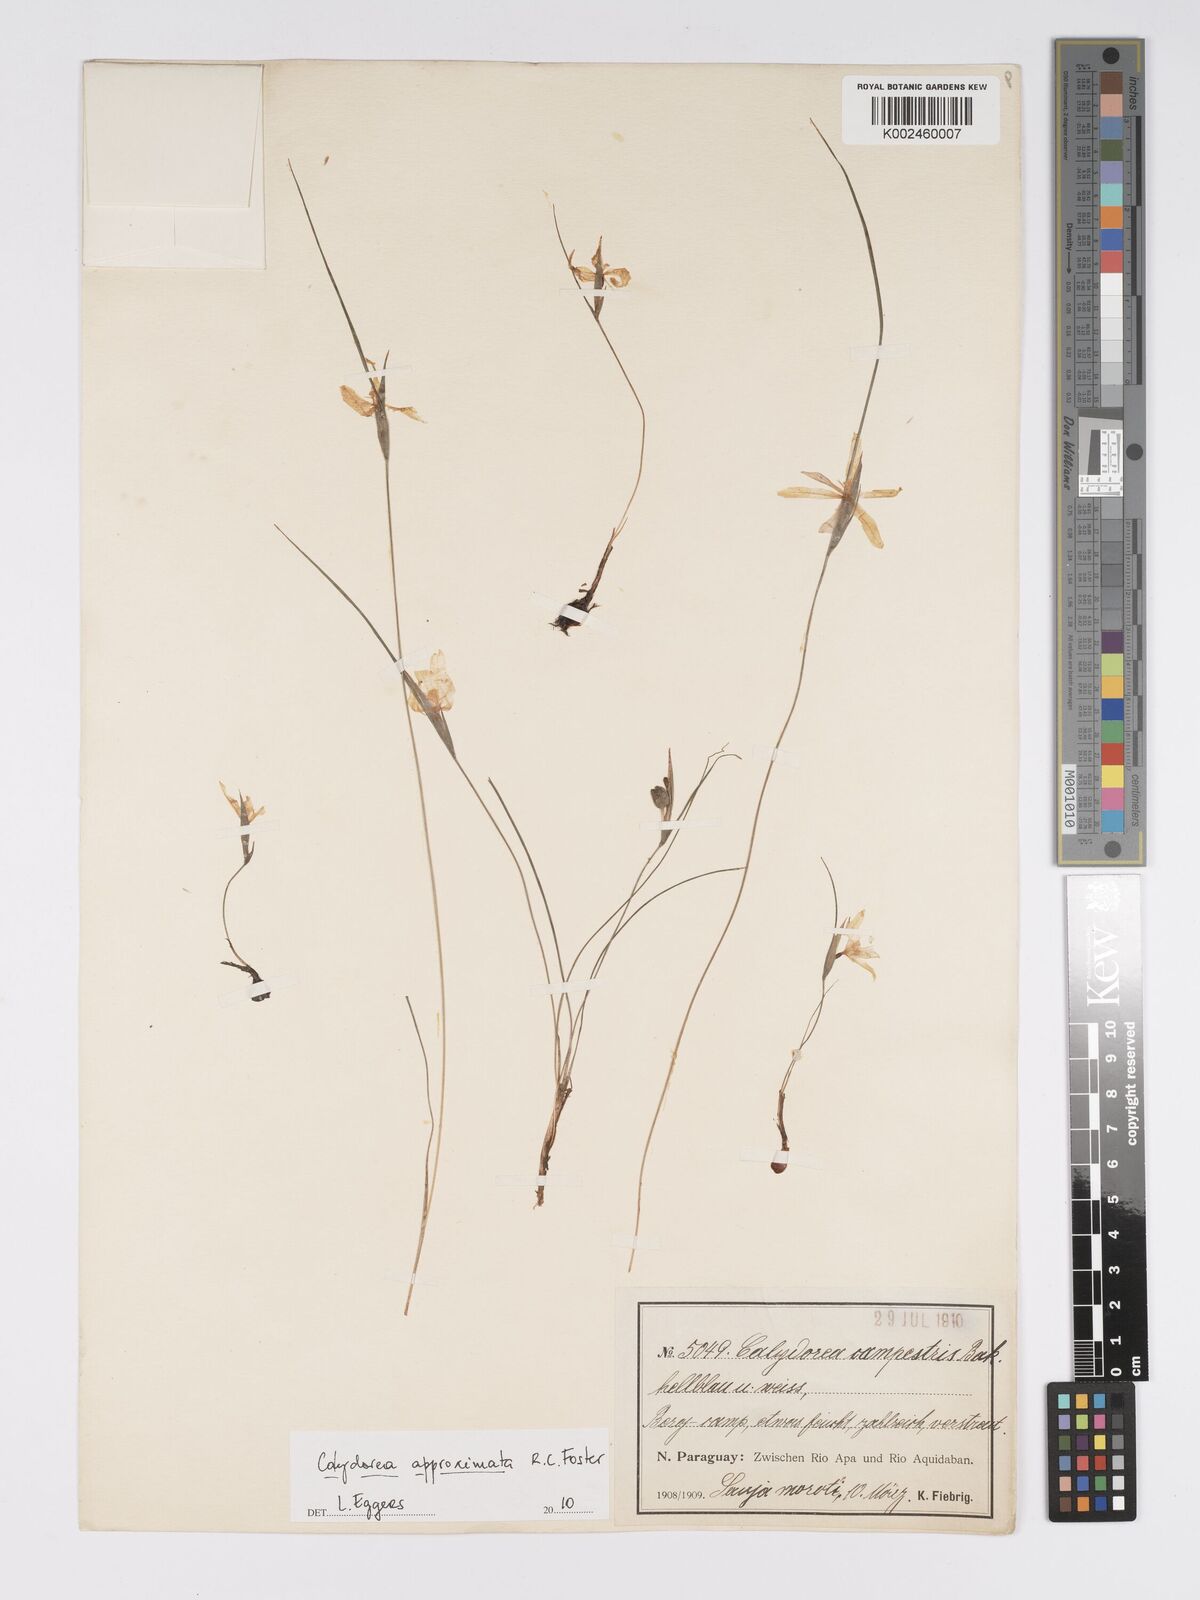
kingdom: Plantae
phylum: Tracheophyta
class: Liliopsida
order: Asparagales
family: Iridaceae
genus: Calydorea
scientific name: Calydorea approximata
